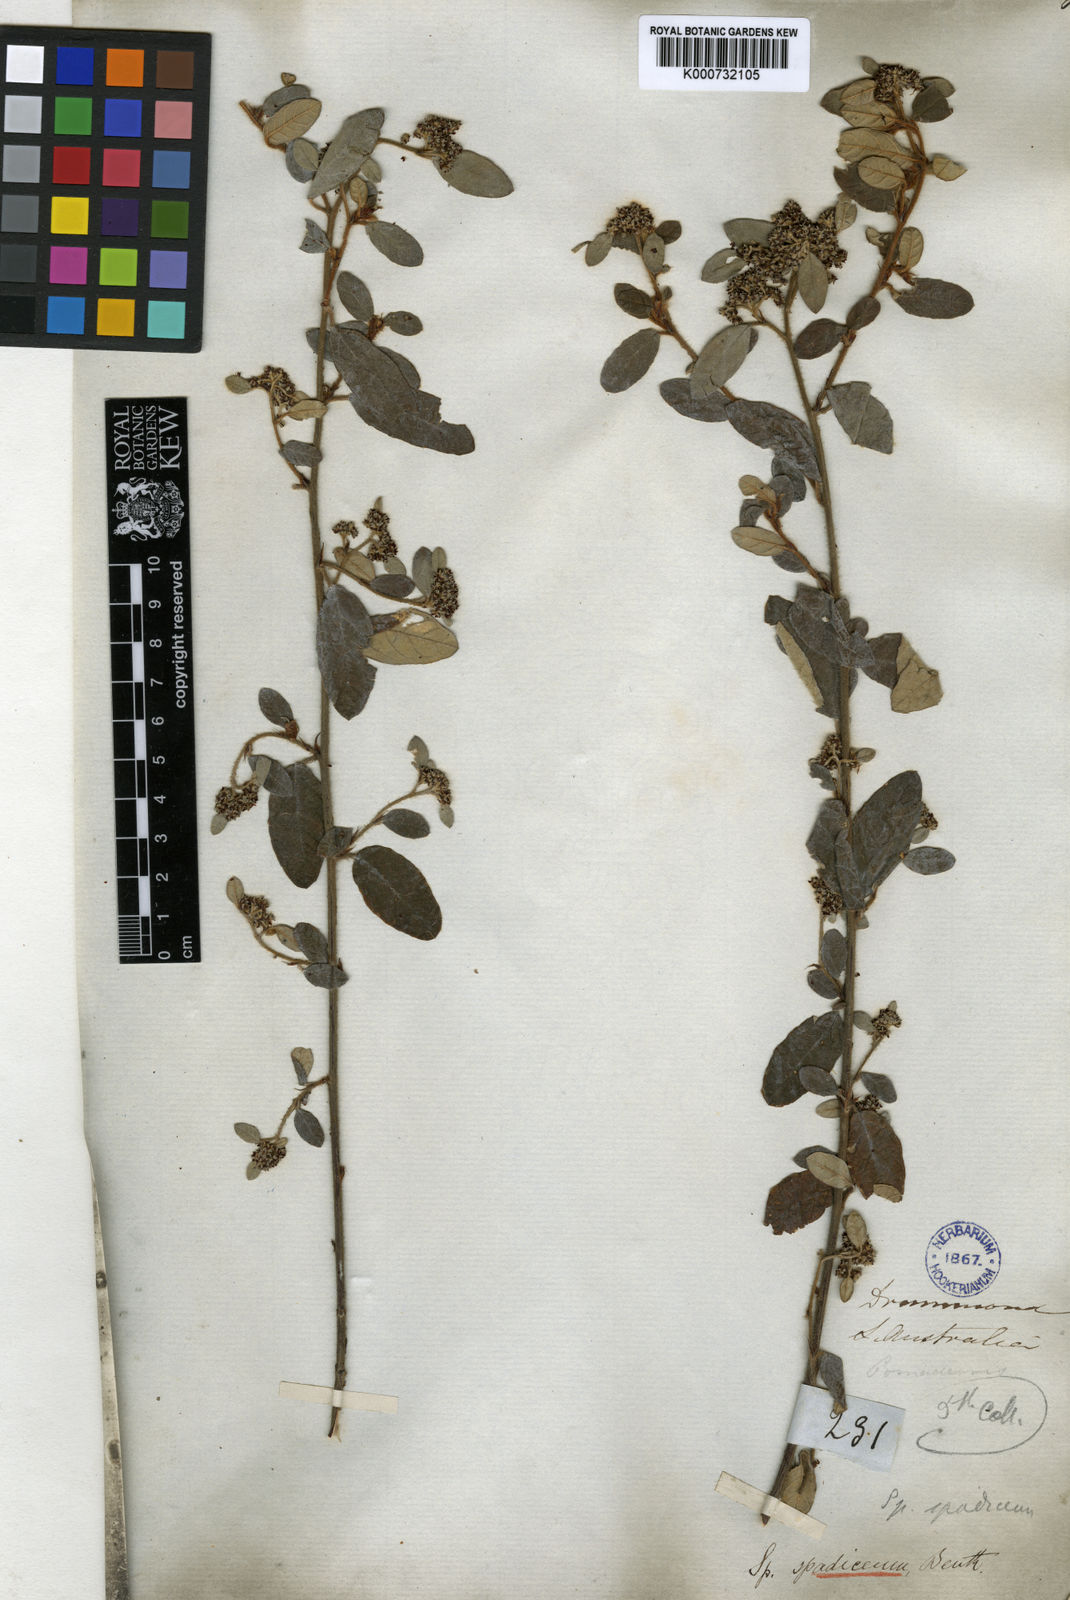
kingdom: Plantae
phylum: Tracheophyta
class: Magnoliopsida
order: Rosales
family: Rhamnaceae
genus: Spyridium
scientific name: Spyridium spadiceum
